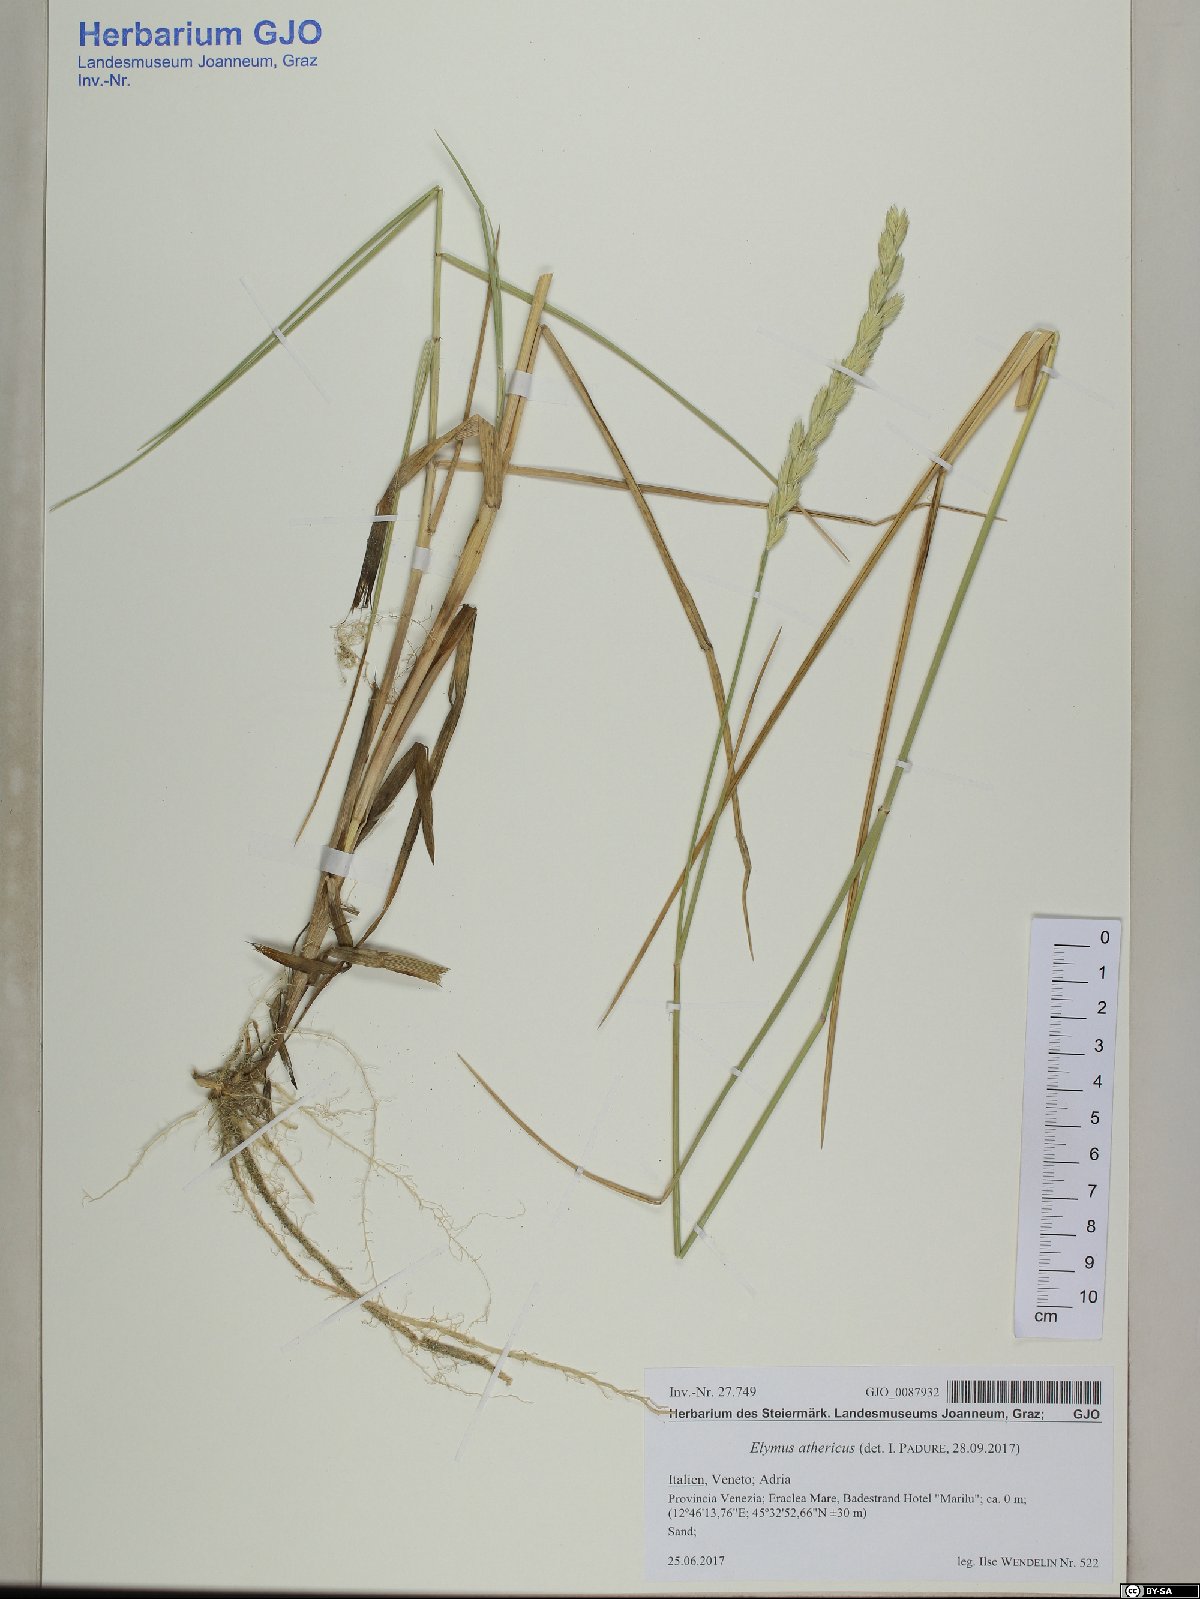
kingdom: Plantae
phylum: Tracheophyta
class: Liliopsida
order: Poales
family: Poaceae
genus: Elymus
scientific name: Elymus athericus
